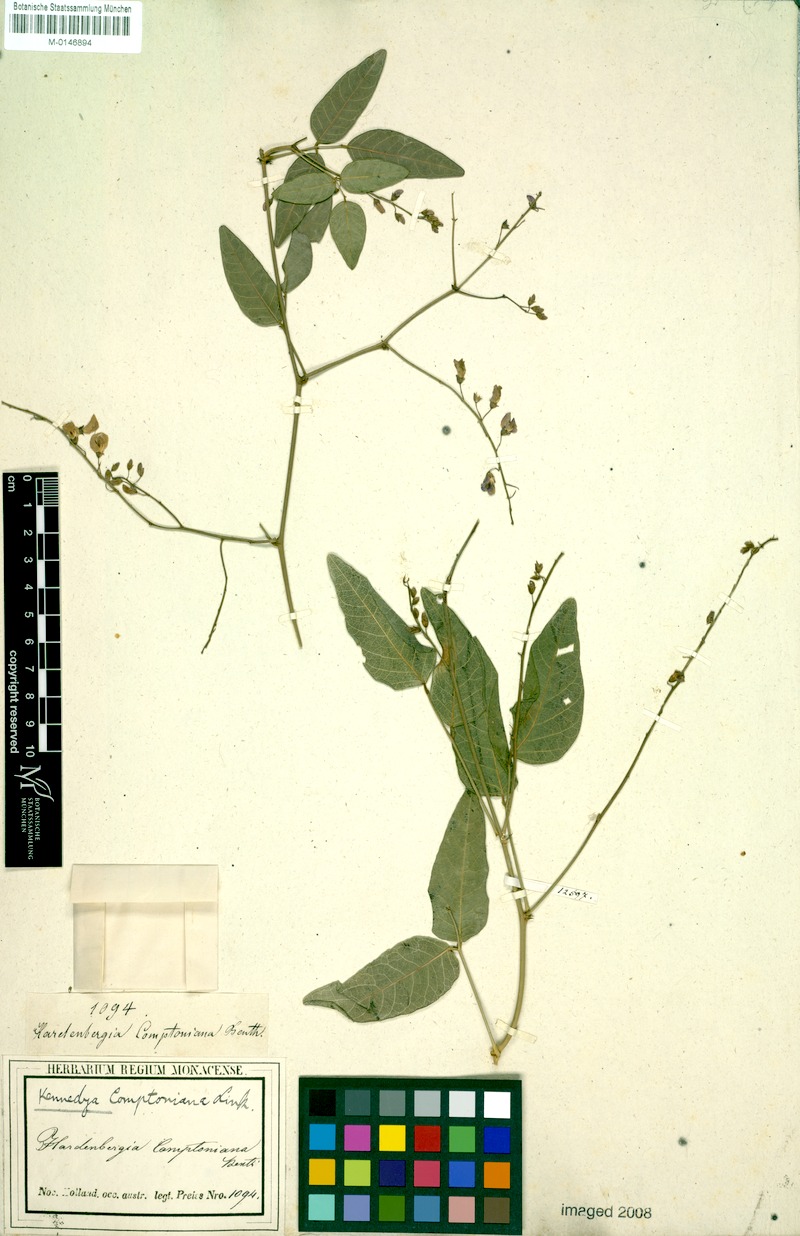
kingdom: Plantae
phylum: Tracheophyta
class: Magnoliopsida
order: Fabales
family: Fabaceae
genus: Hardenbergia
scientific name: Hardenbergia comptoniana
